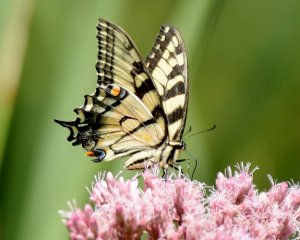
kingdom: Animalia
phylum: Arthropoda
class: Insecta
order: Lepidoptera
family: Papilionidae
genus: Pterourus
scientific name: Pterourus glaucus
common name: Eastern Tiger Swallowtail
